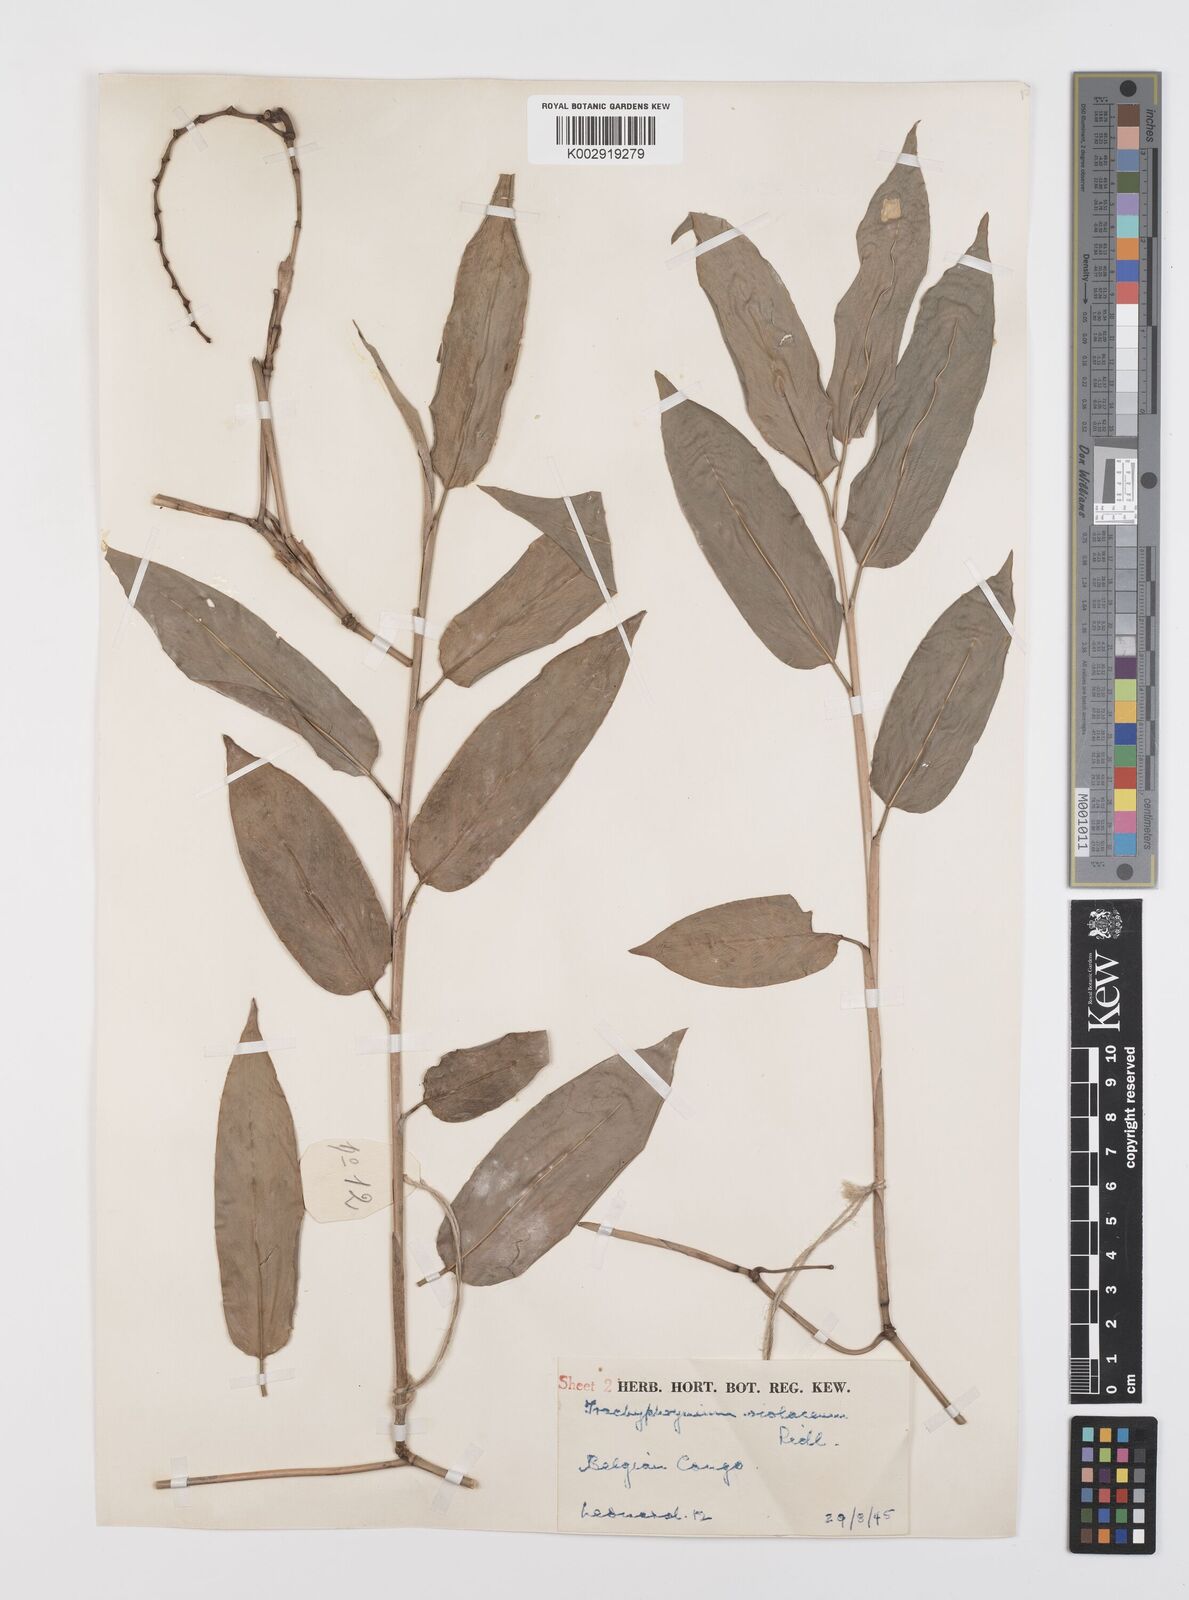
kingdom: Plantae
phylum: Tracheophyta
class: Liliopsida
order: Zingiberales
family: Marantaceae
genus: Hypselodelphys
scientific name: Hypselodelphys poggeana
